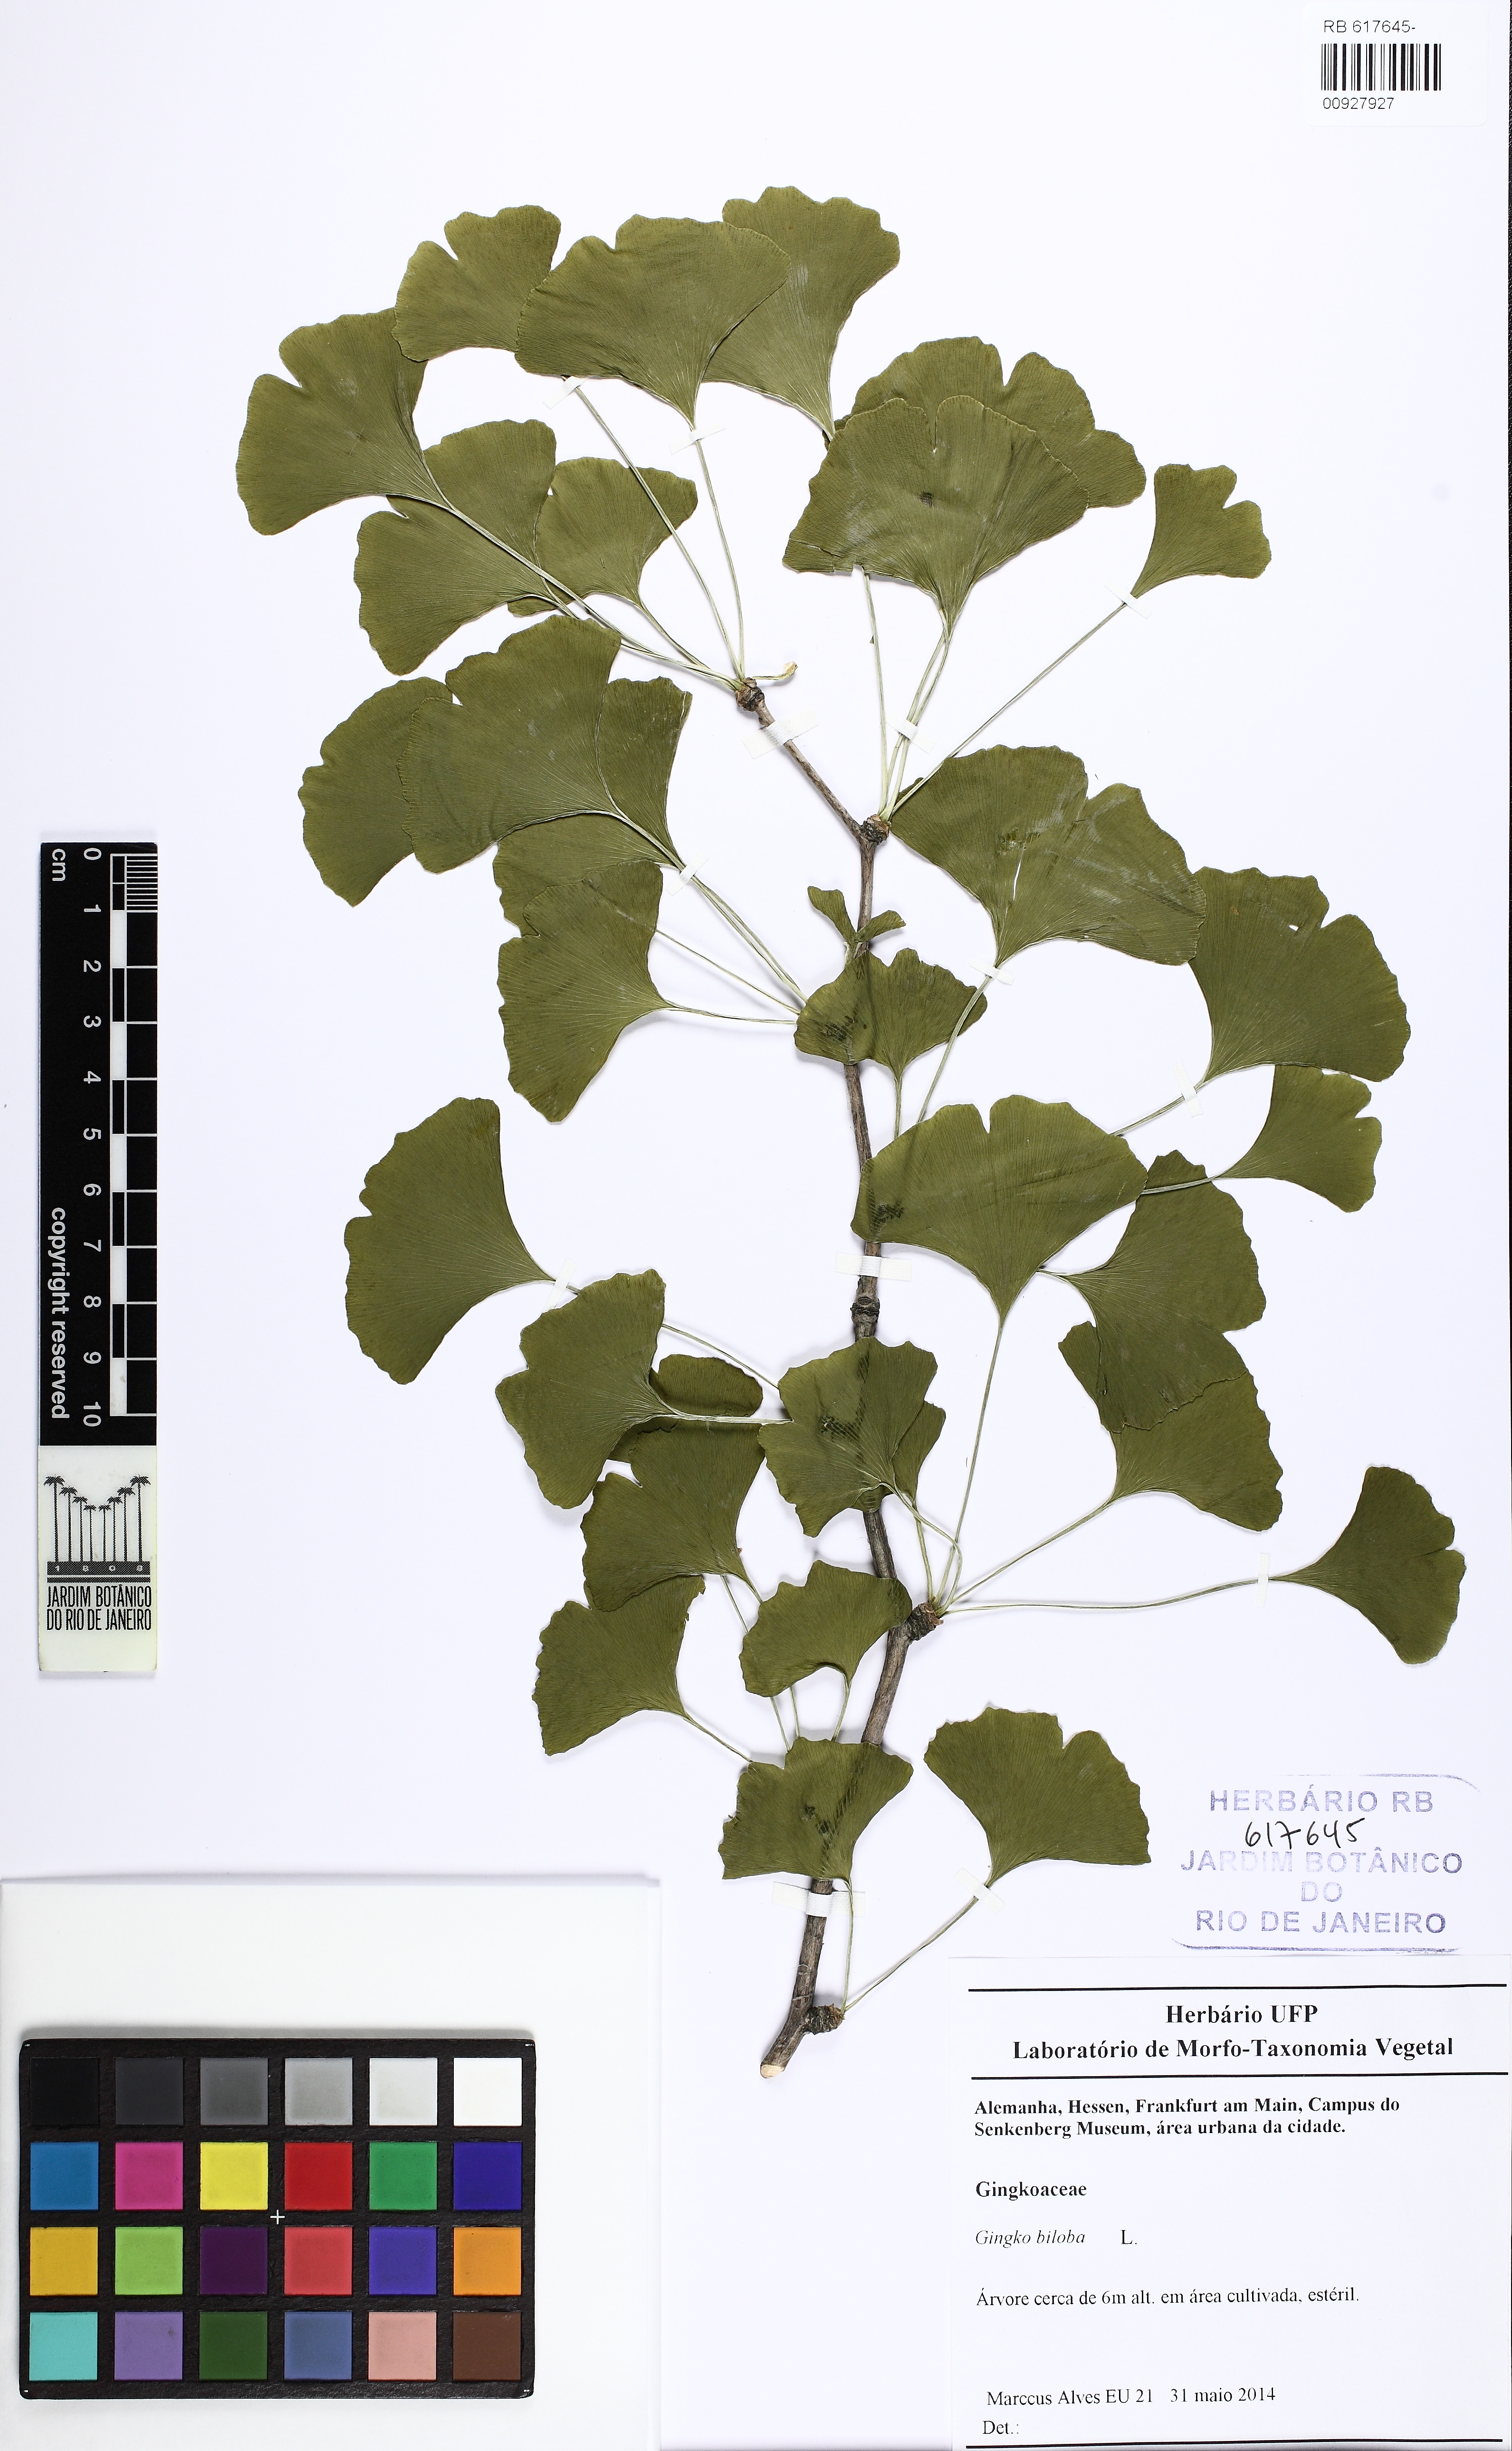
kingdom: Plantae
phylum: Tracheophyta
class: Ginkgoopsida
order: Ginkgoales
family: Ginkgoaceae
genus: Ginkgo
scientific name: Ginkgo biloba
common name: Ginkgo
